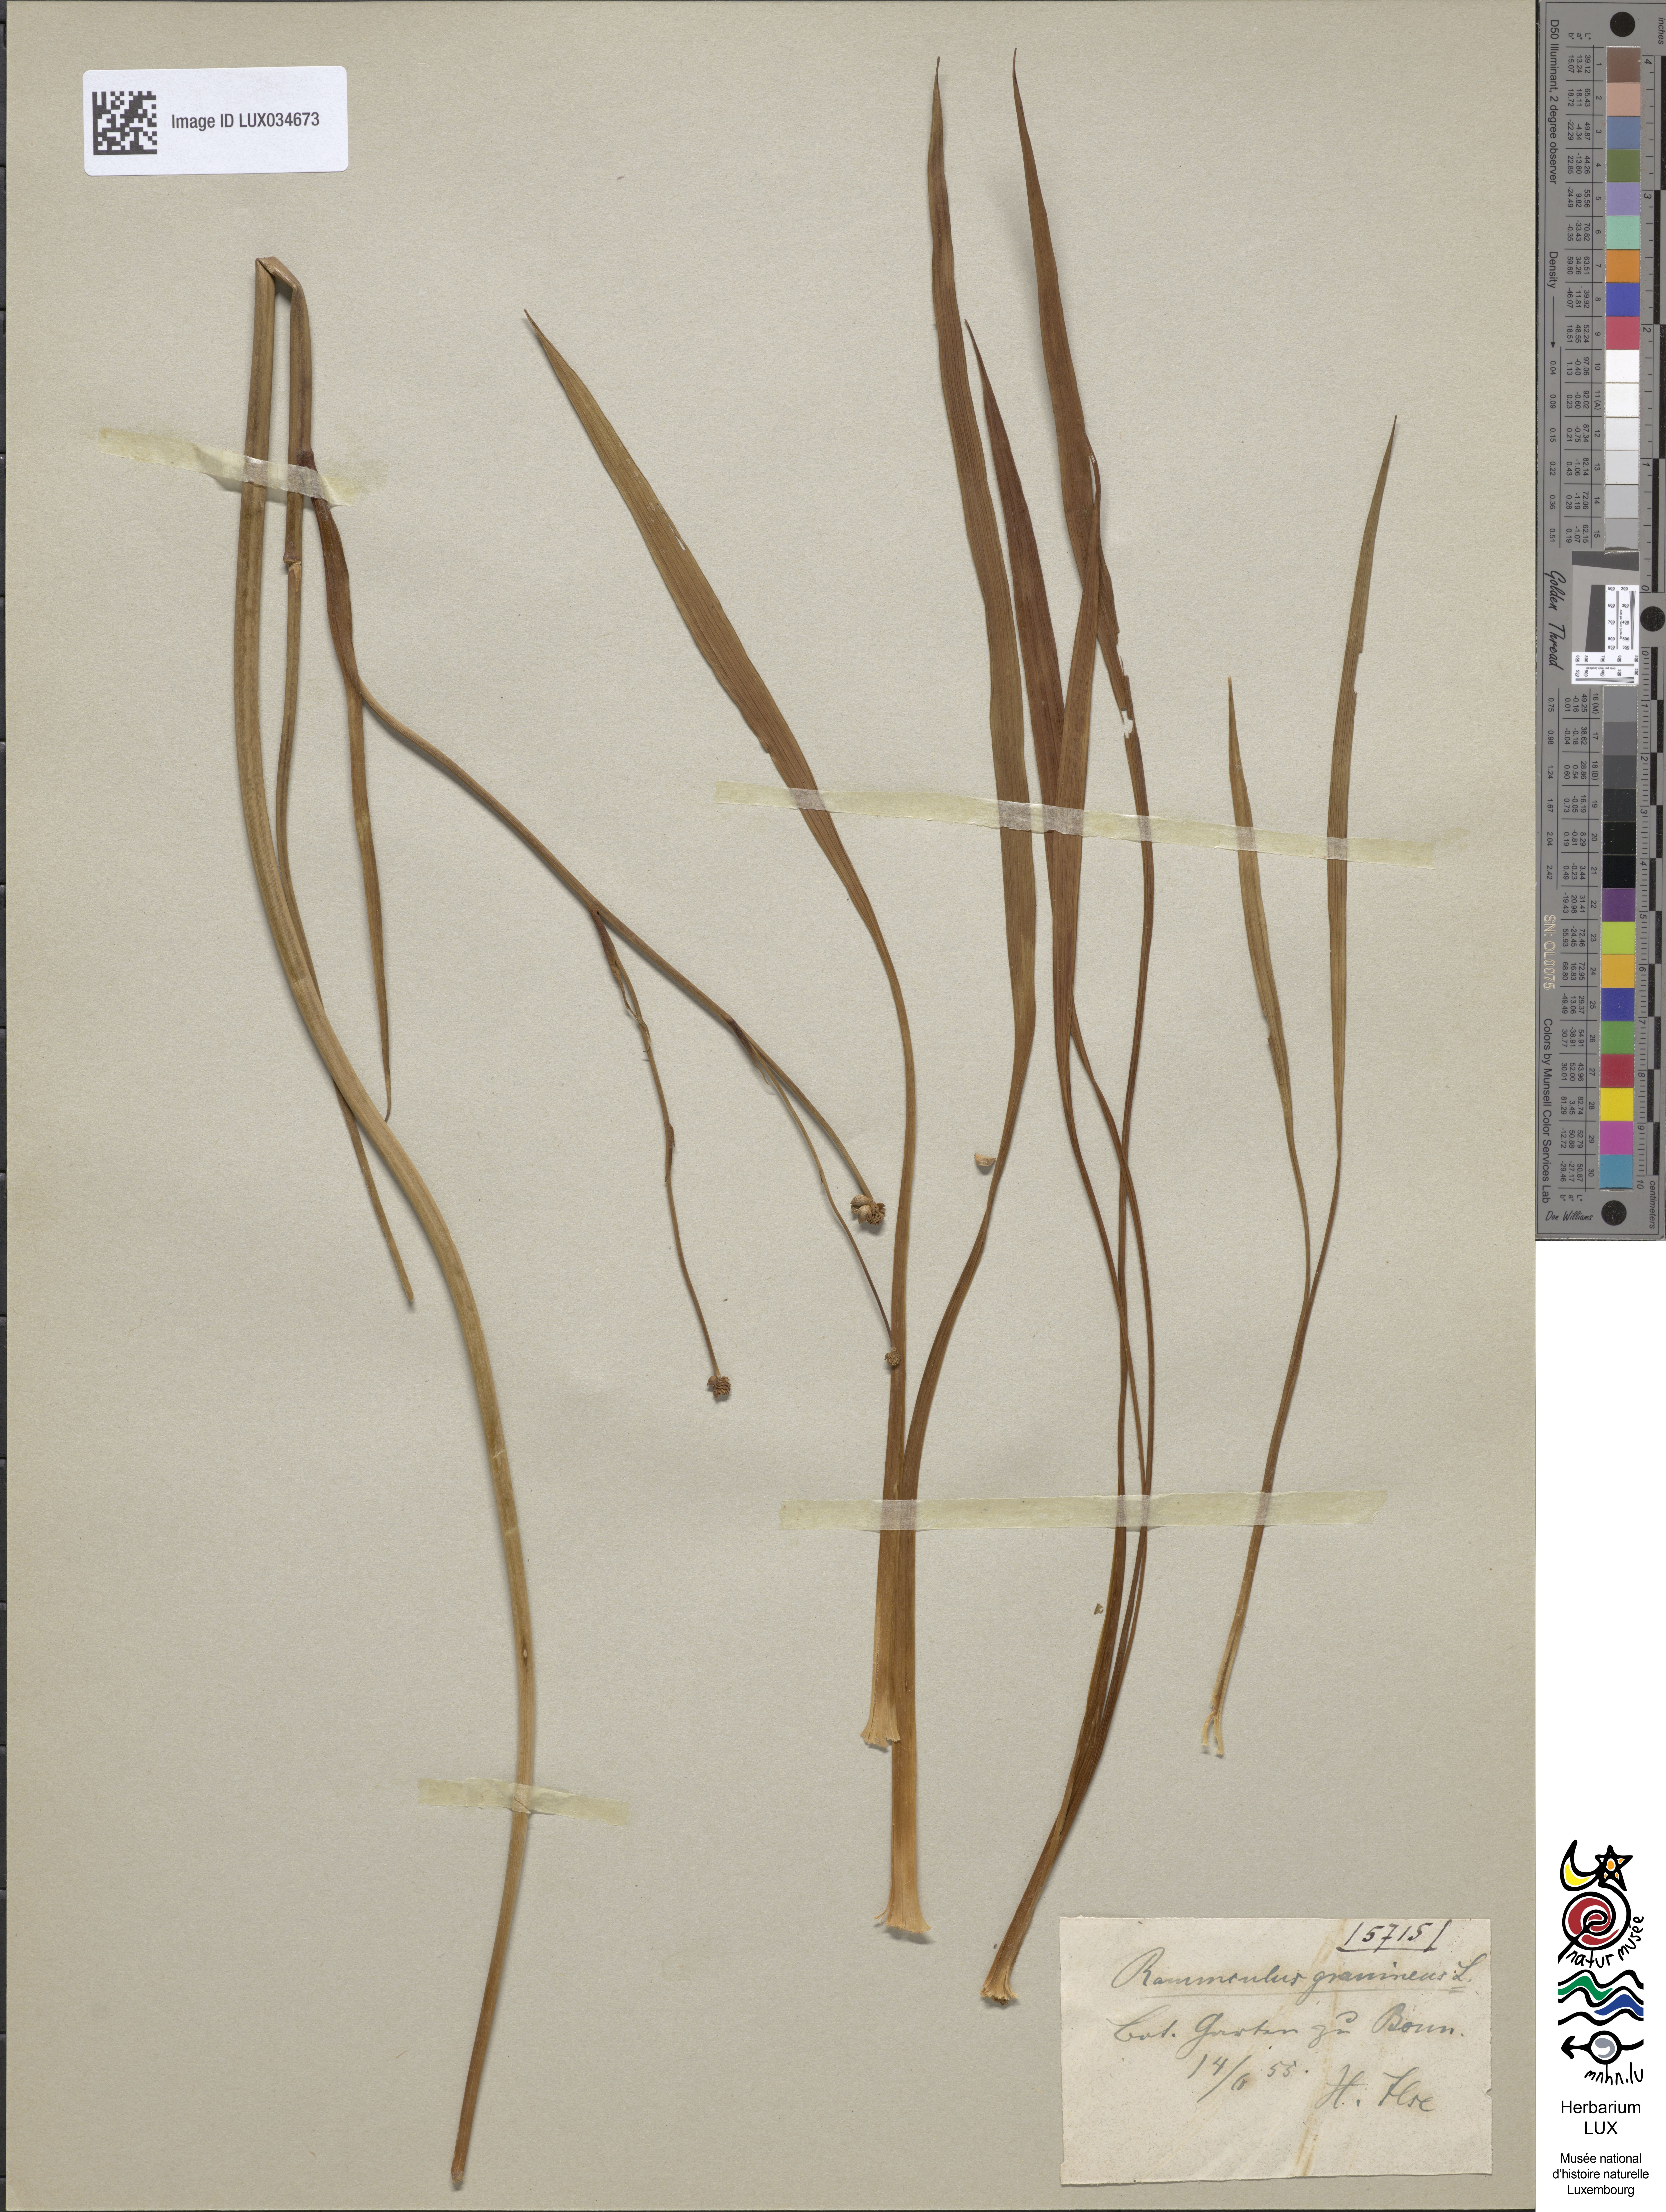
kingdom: Plantae
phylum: Tracheophyta
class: Magnoliopsida
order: Ranunculales
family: Ranunculaceae
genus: Ranunculus
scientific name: Ranunculus gramineus
